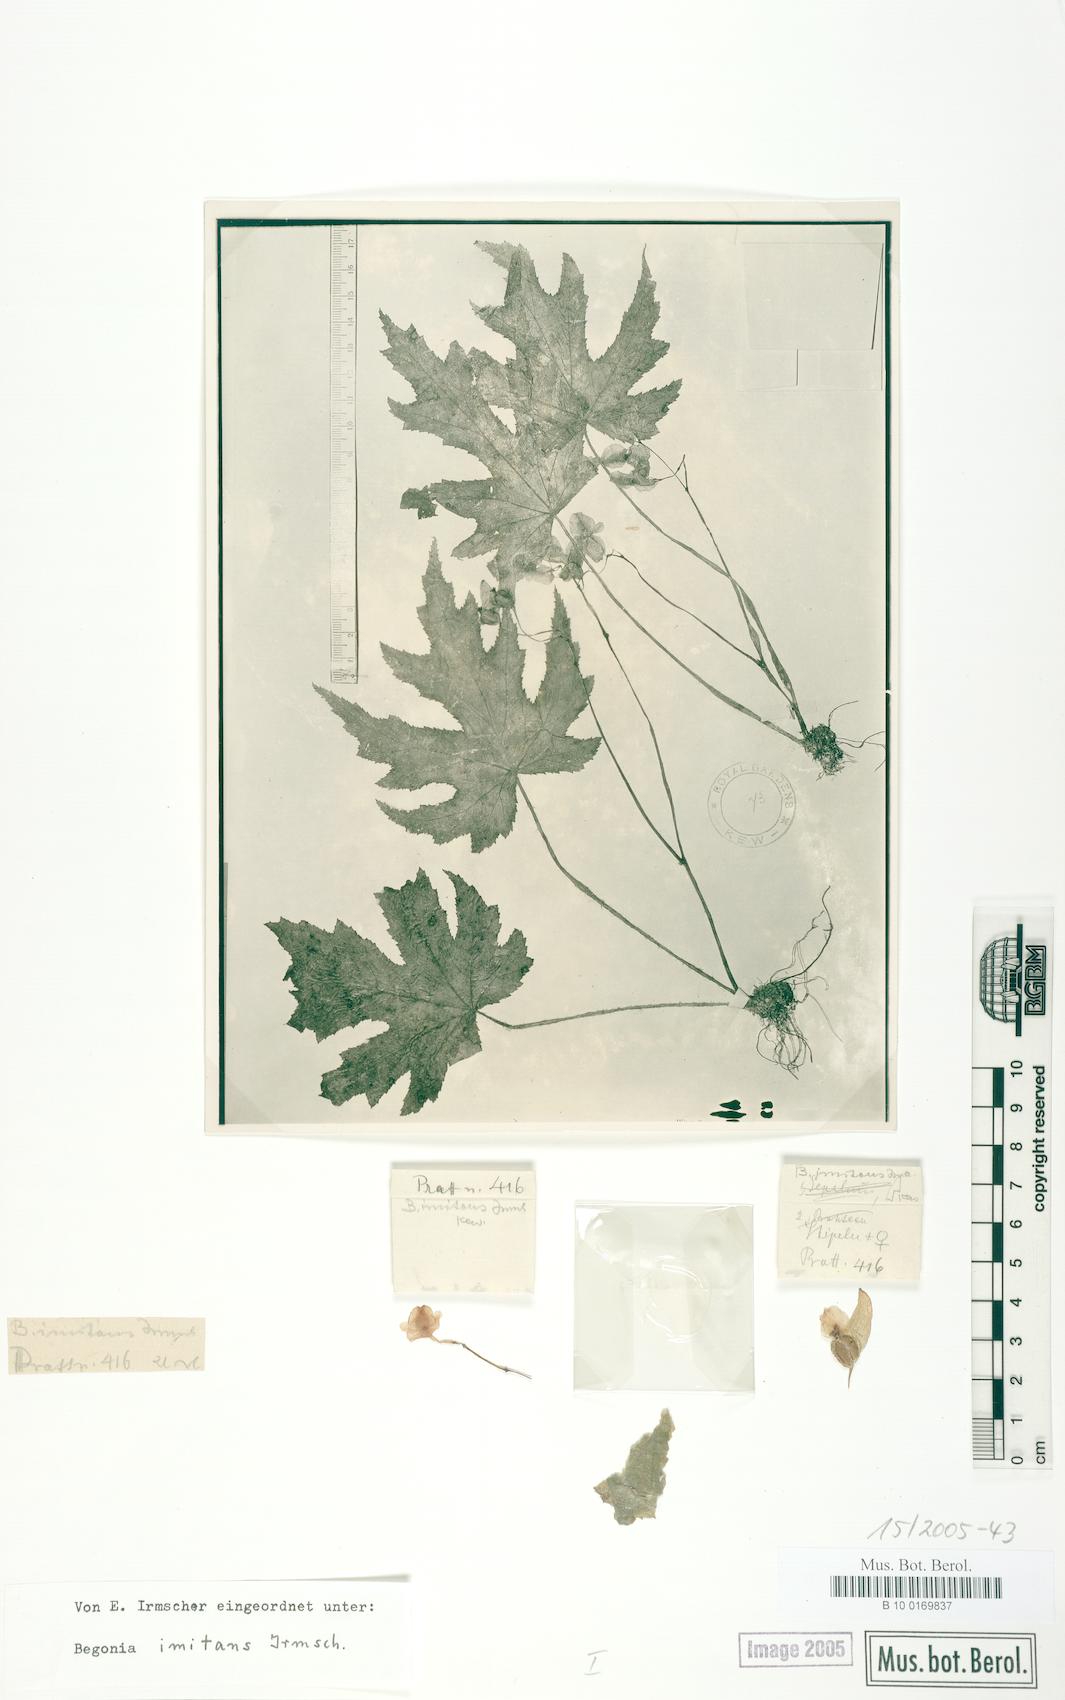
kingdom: Plantae
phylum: Tracheophyta
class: Magnoliopsida
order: Cucurbitales
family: Begoniaceae
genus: Begonia
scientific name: Begonia imitans
